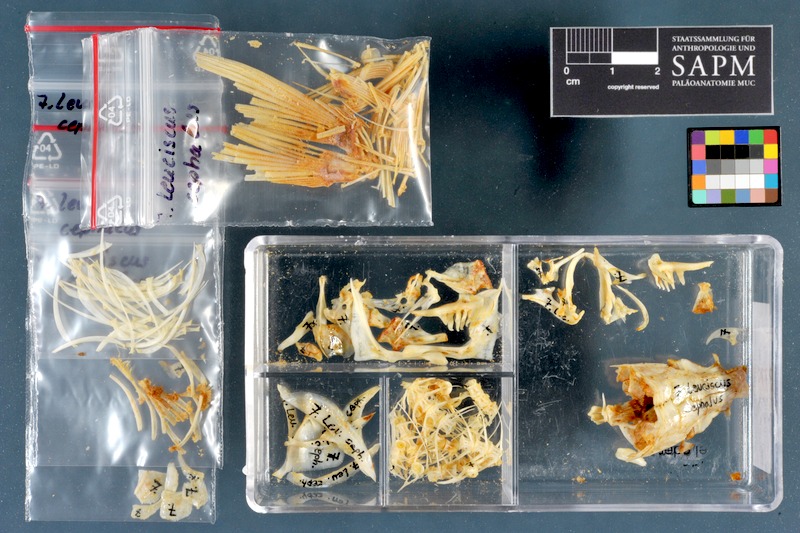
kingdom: Animalia
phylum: Chordata
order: Cypriniformes
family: Cyprinidae
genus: Squalius
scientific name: Squalius cephalus
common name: Chub
